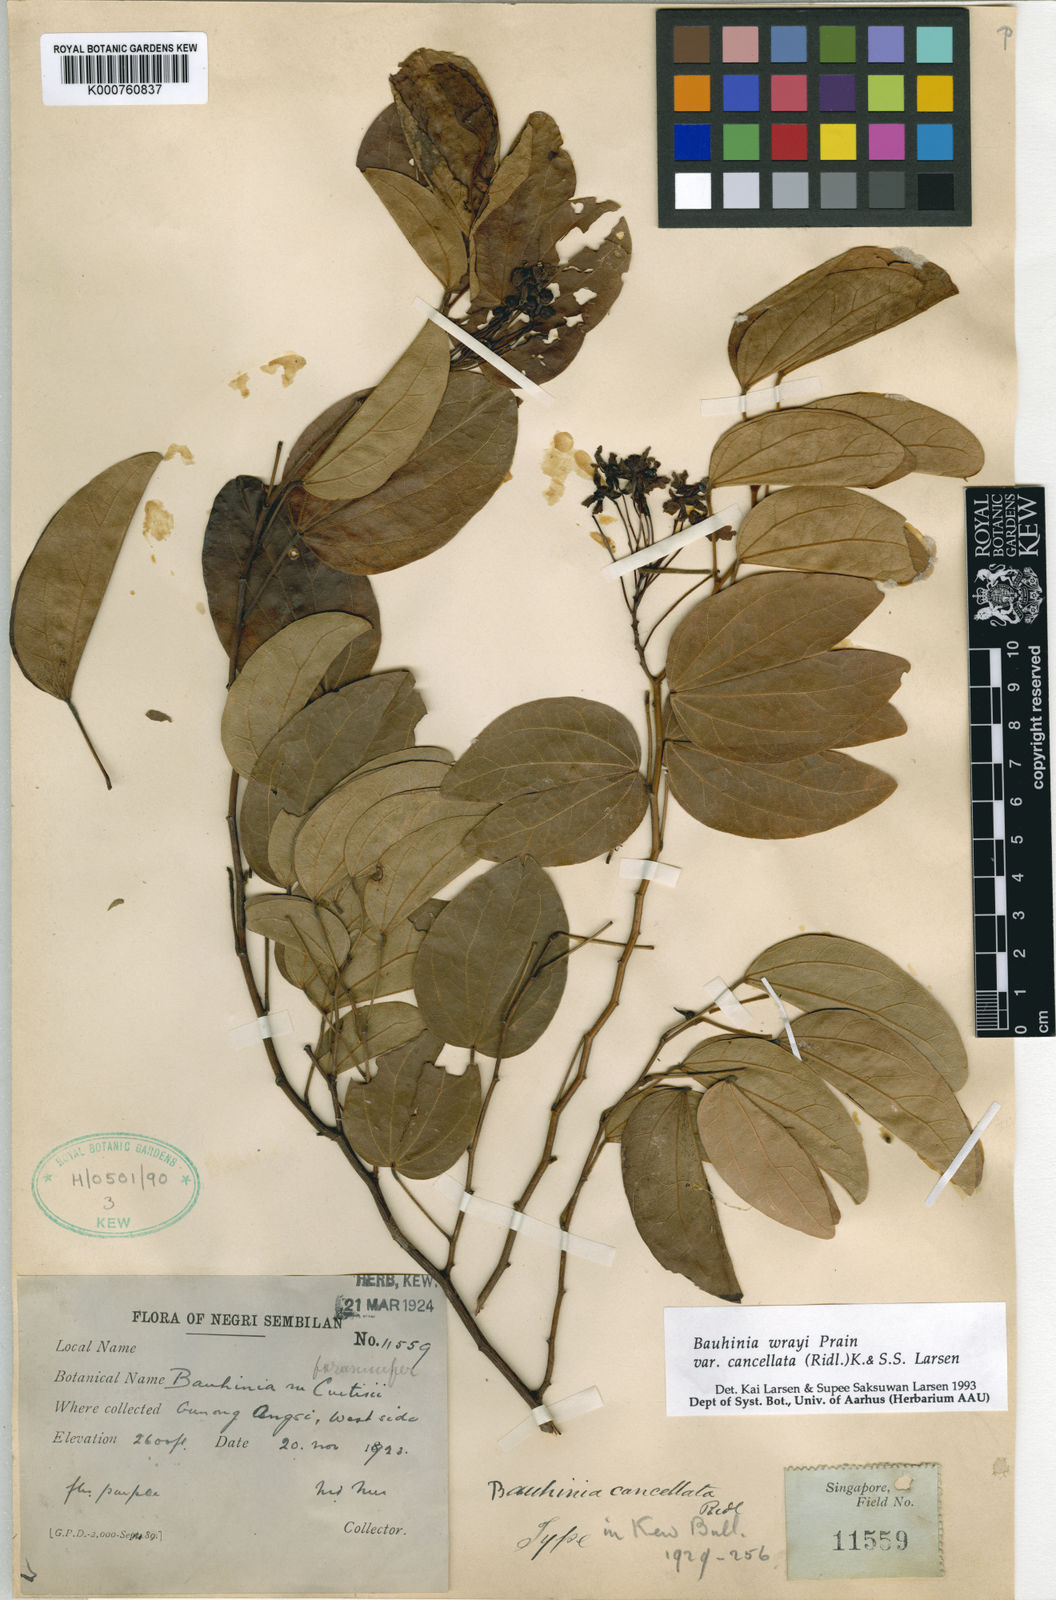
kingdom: Plantae
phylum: Tracheophyta
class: Magnoliopsida
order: Fabales
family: Fabaceae
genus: Phanera
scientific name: Phanera wrayi
